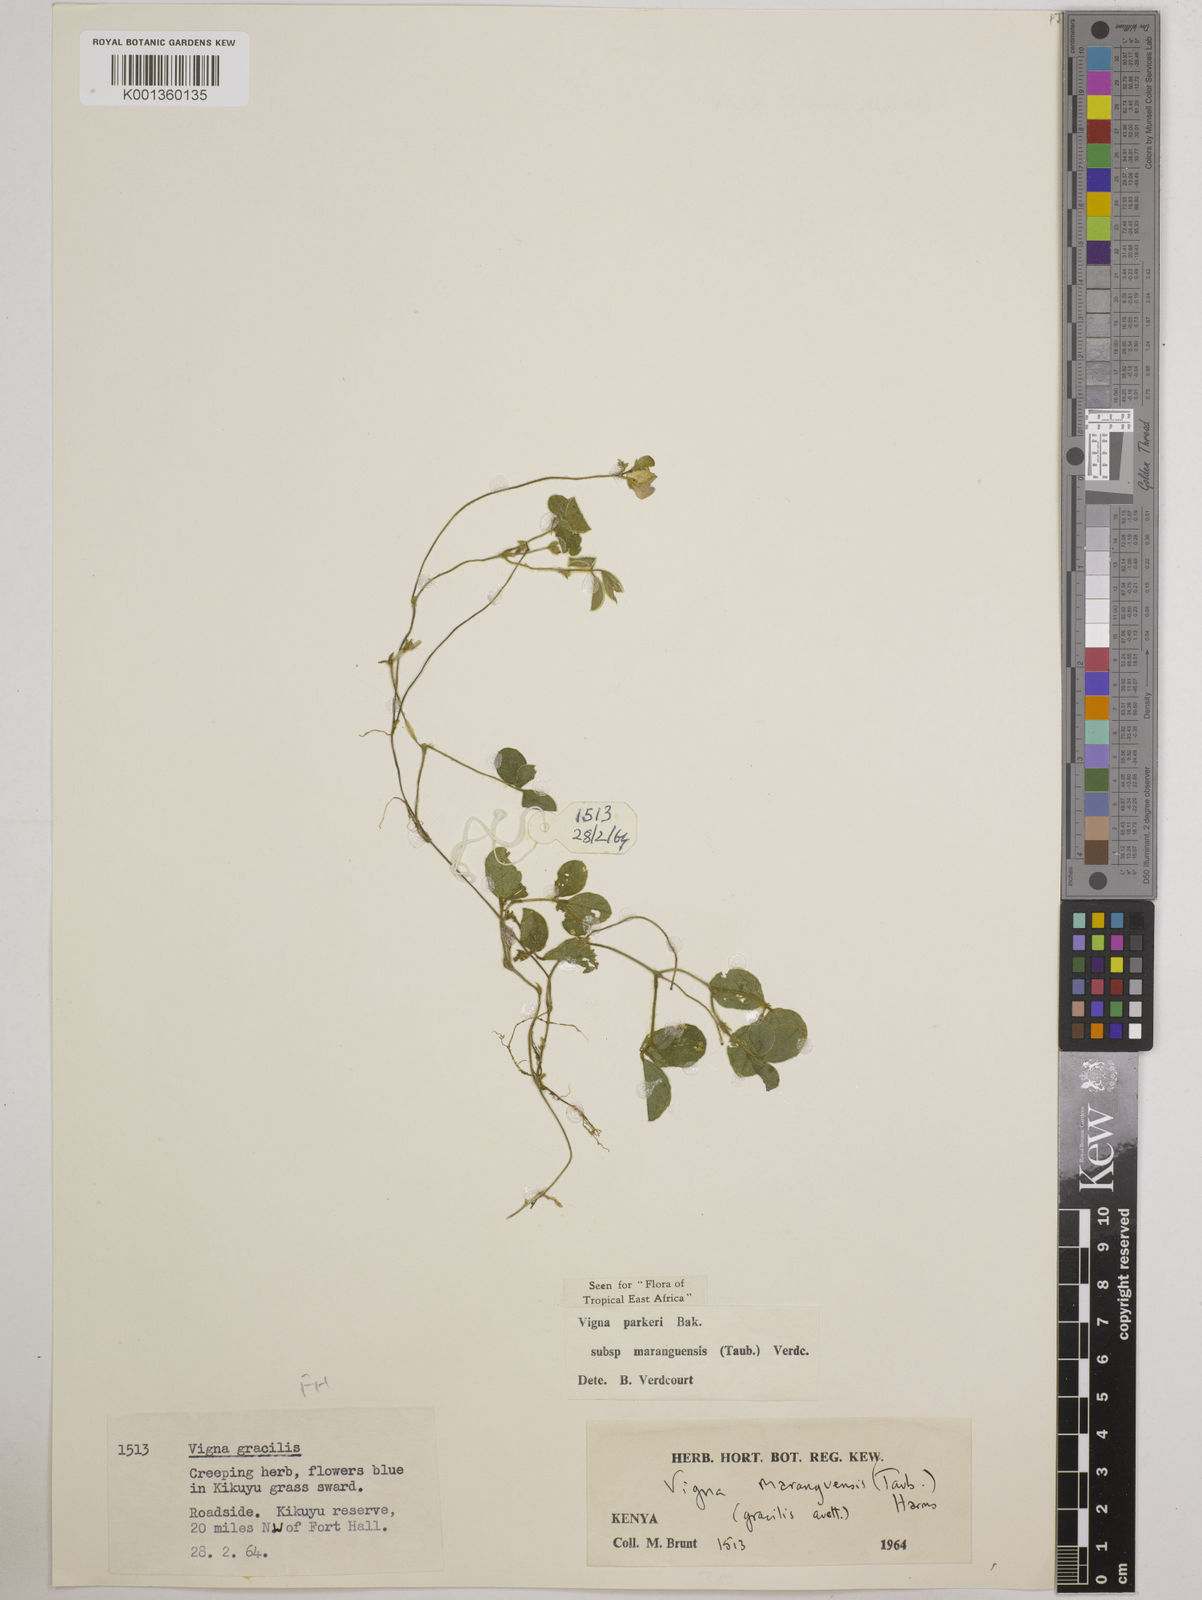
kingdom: Plantae
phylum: Tracheophyta
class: Magnoliopsida
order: Fabales
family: Fabaceae
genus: Vigna
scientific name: Vigna
